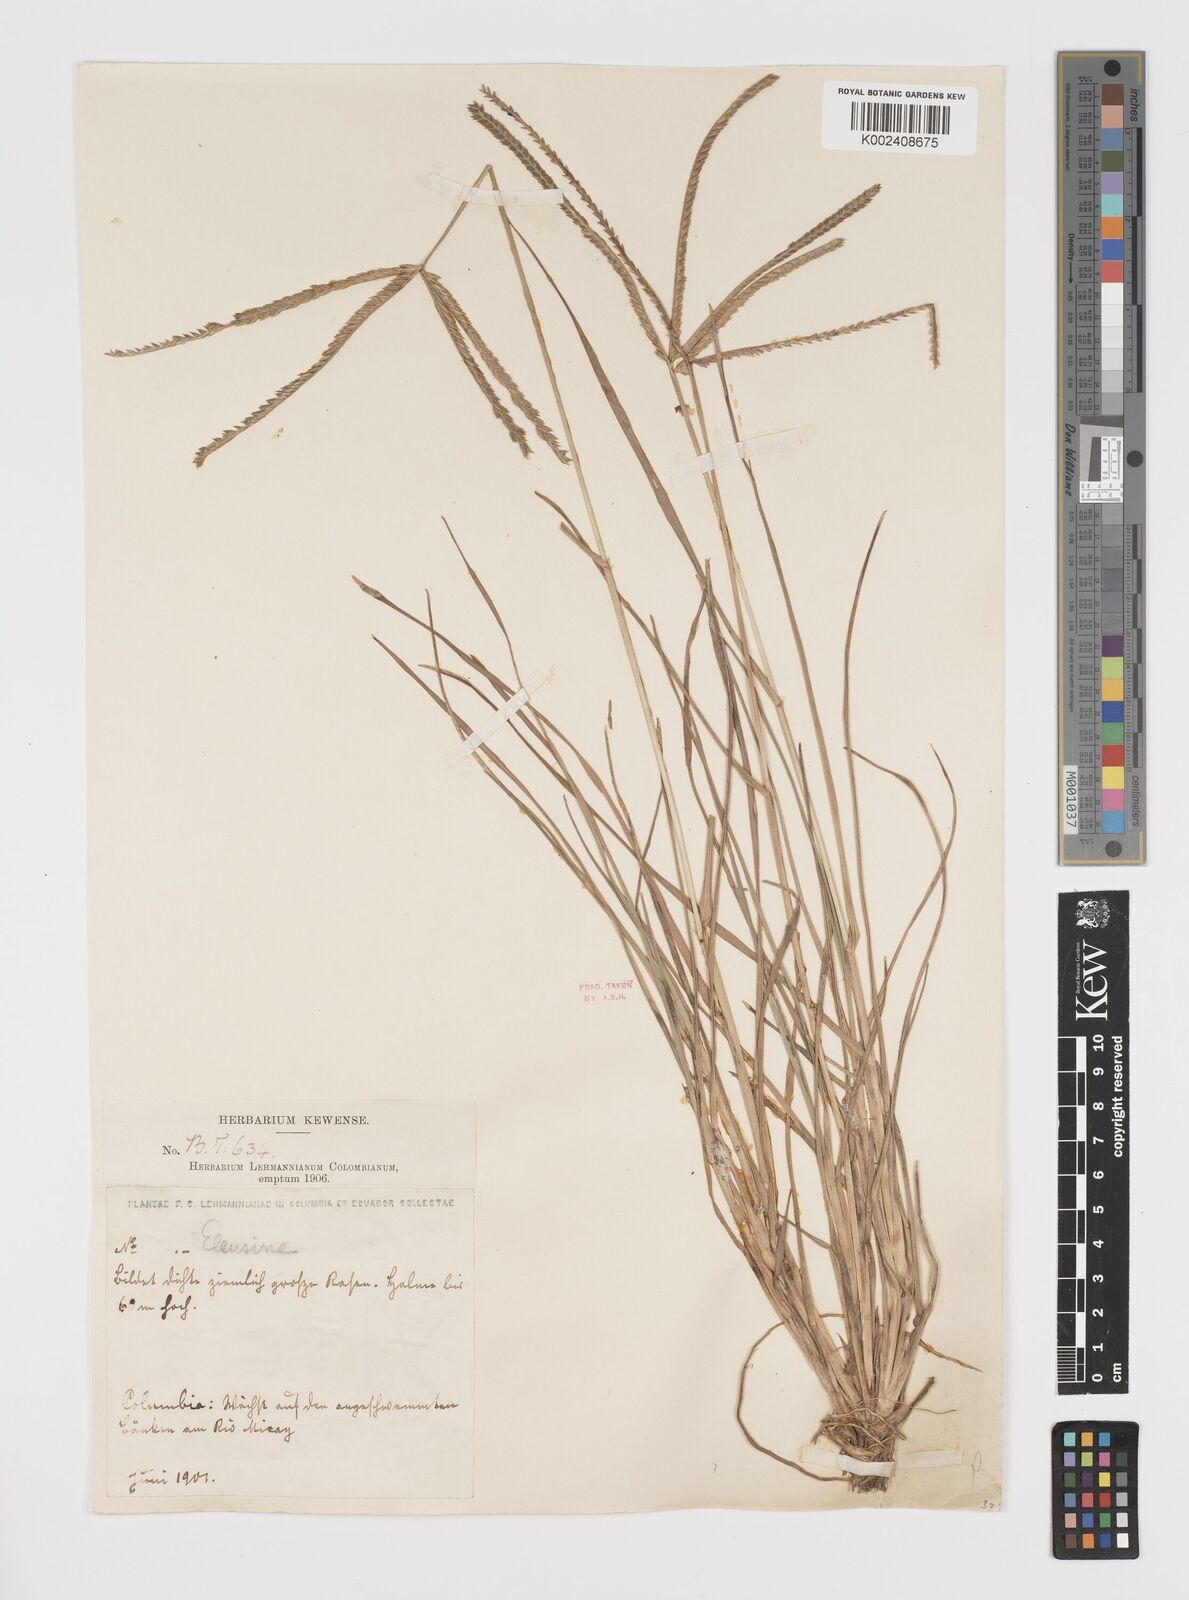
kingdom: Plantae
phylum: Tracheophyta
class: Liliopsida
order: Poales
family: Poaceae
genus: Eleusine
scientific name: Eleusine indica
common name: Yard-grass
